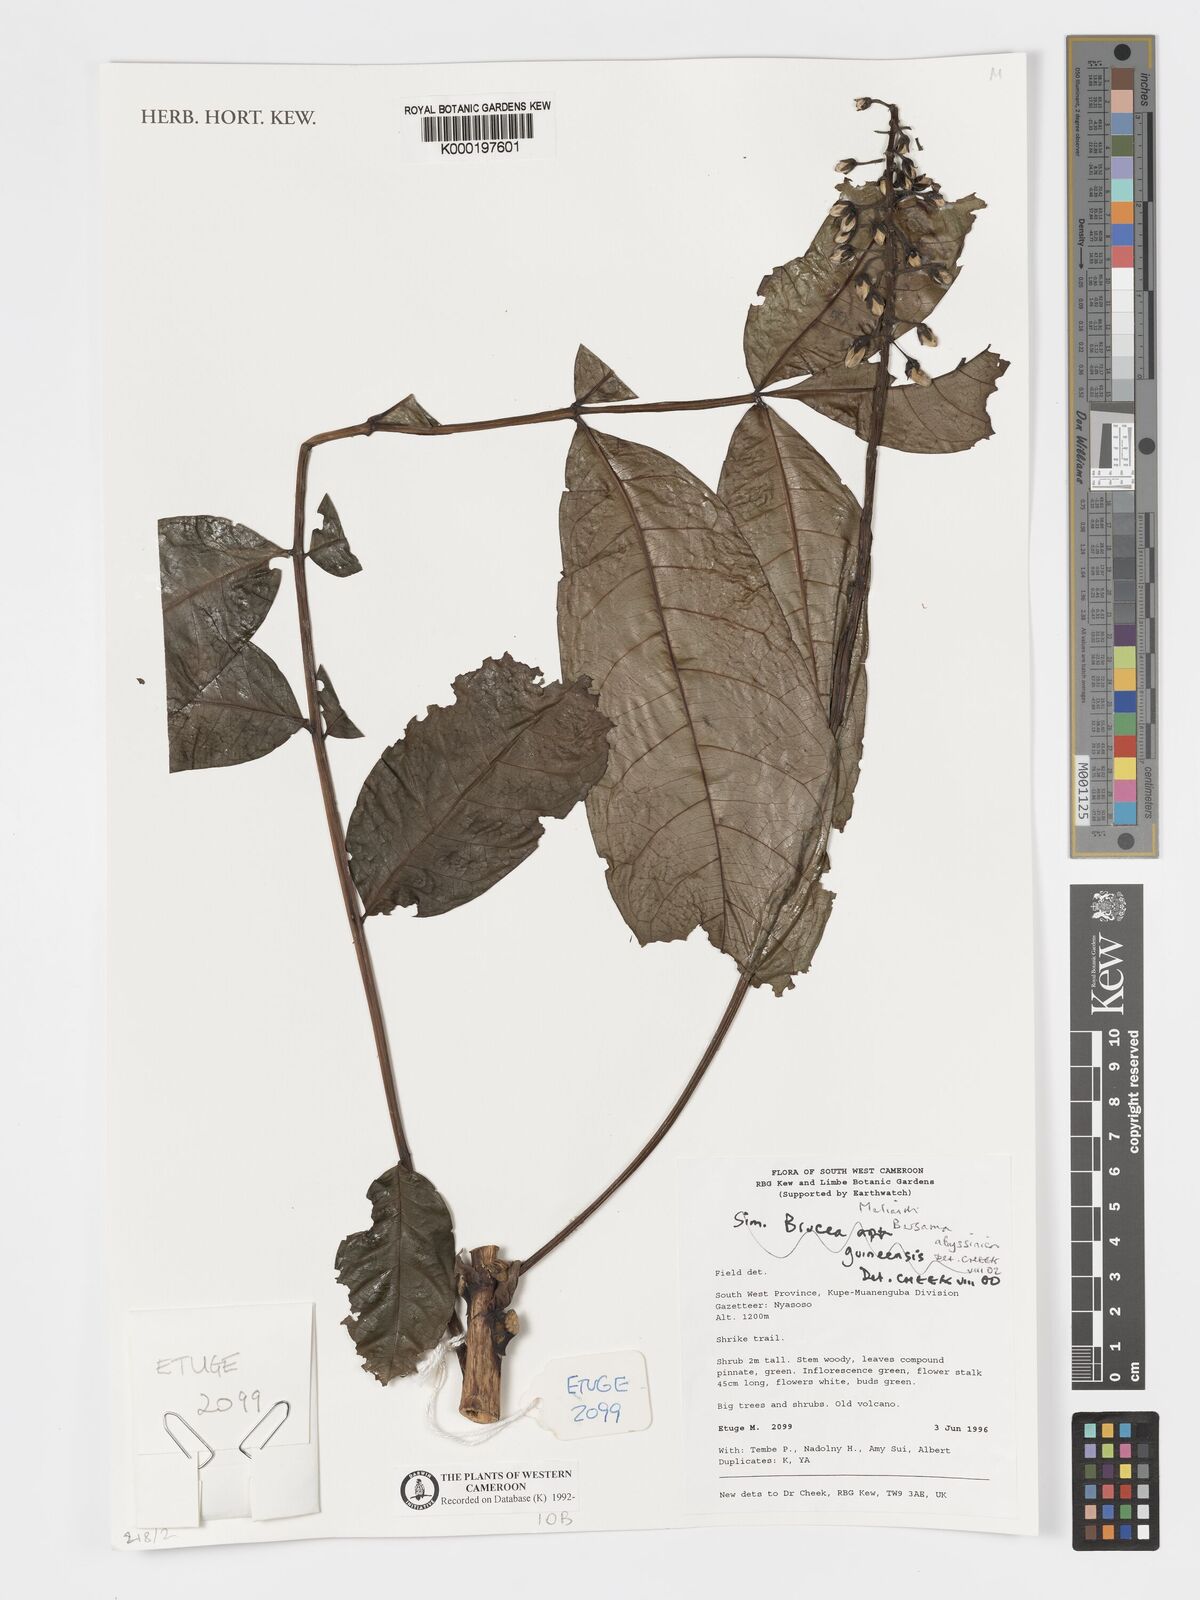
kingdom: Plantae
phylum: Tracheophyta
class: Magnoliopsida
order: Geraniales
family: Melianthaceae
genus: Bersama
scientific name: Bersama abyssinica
